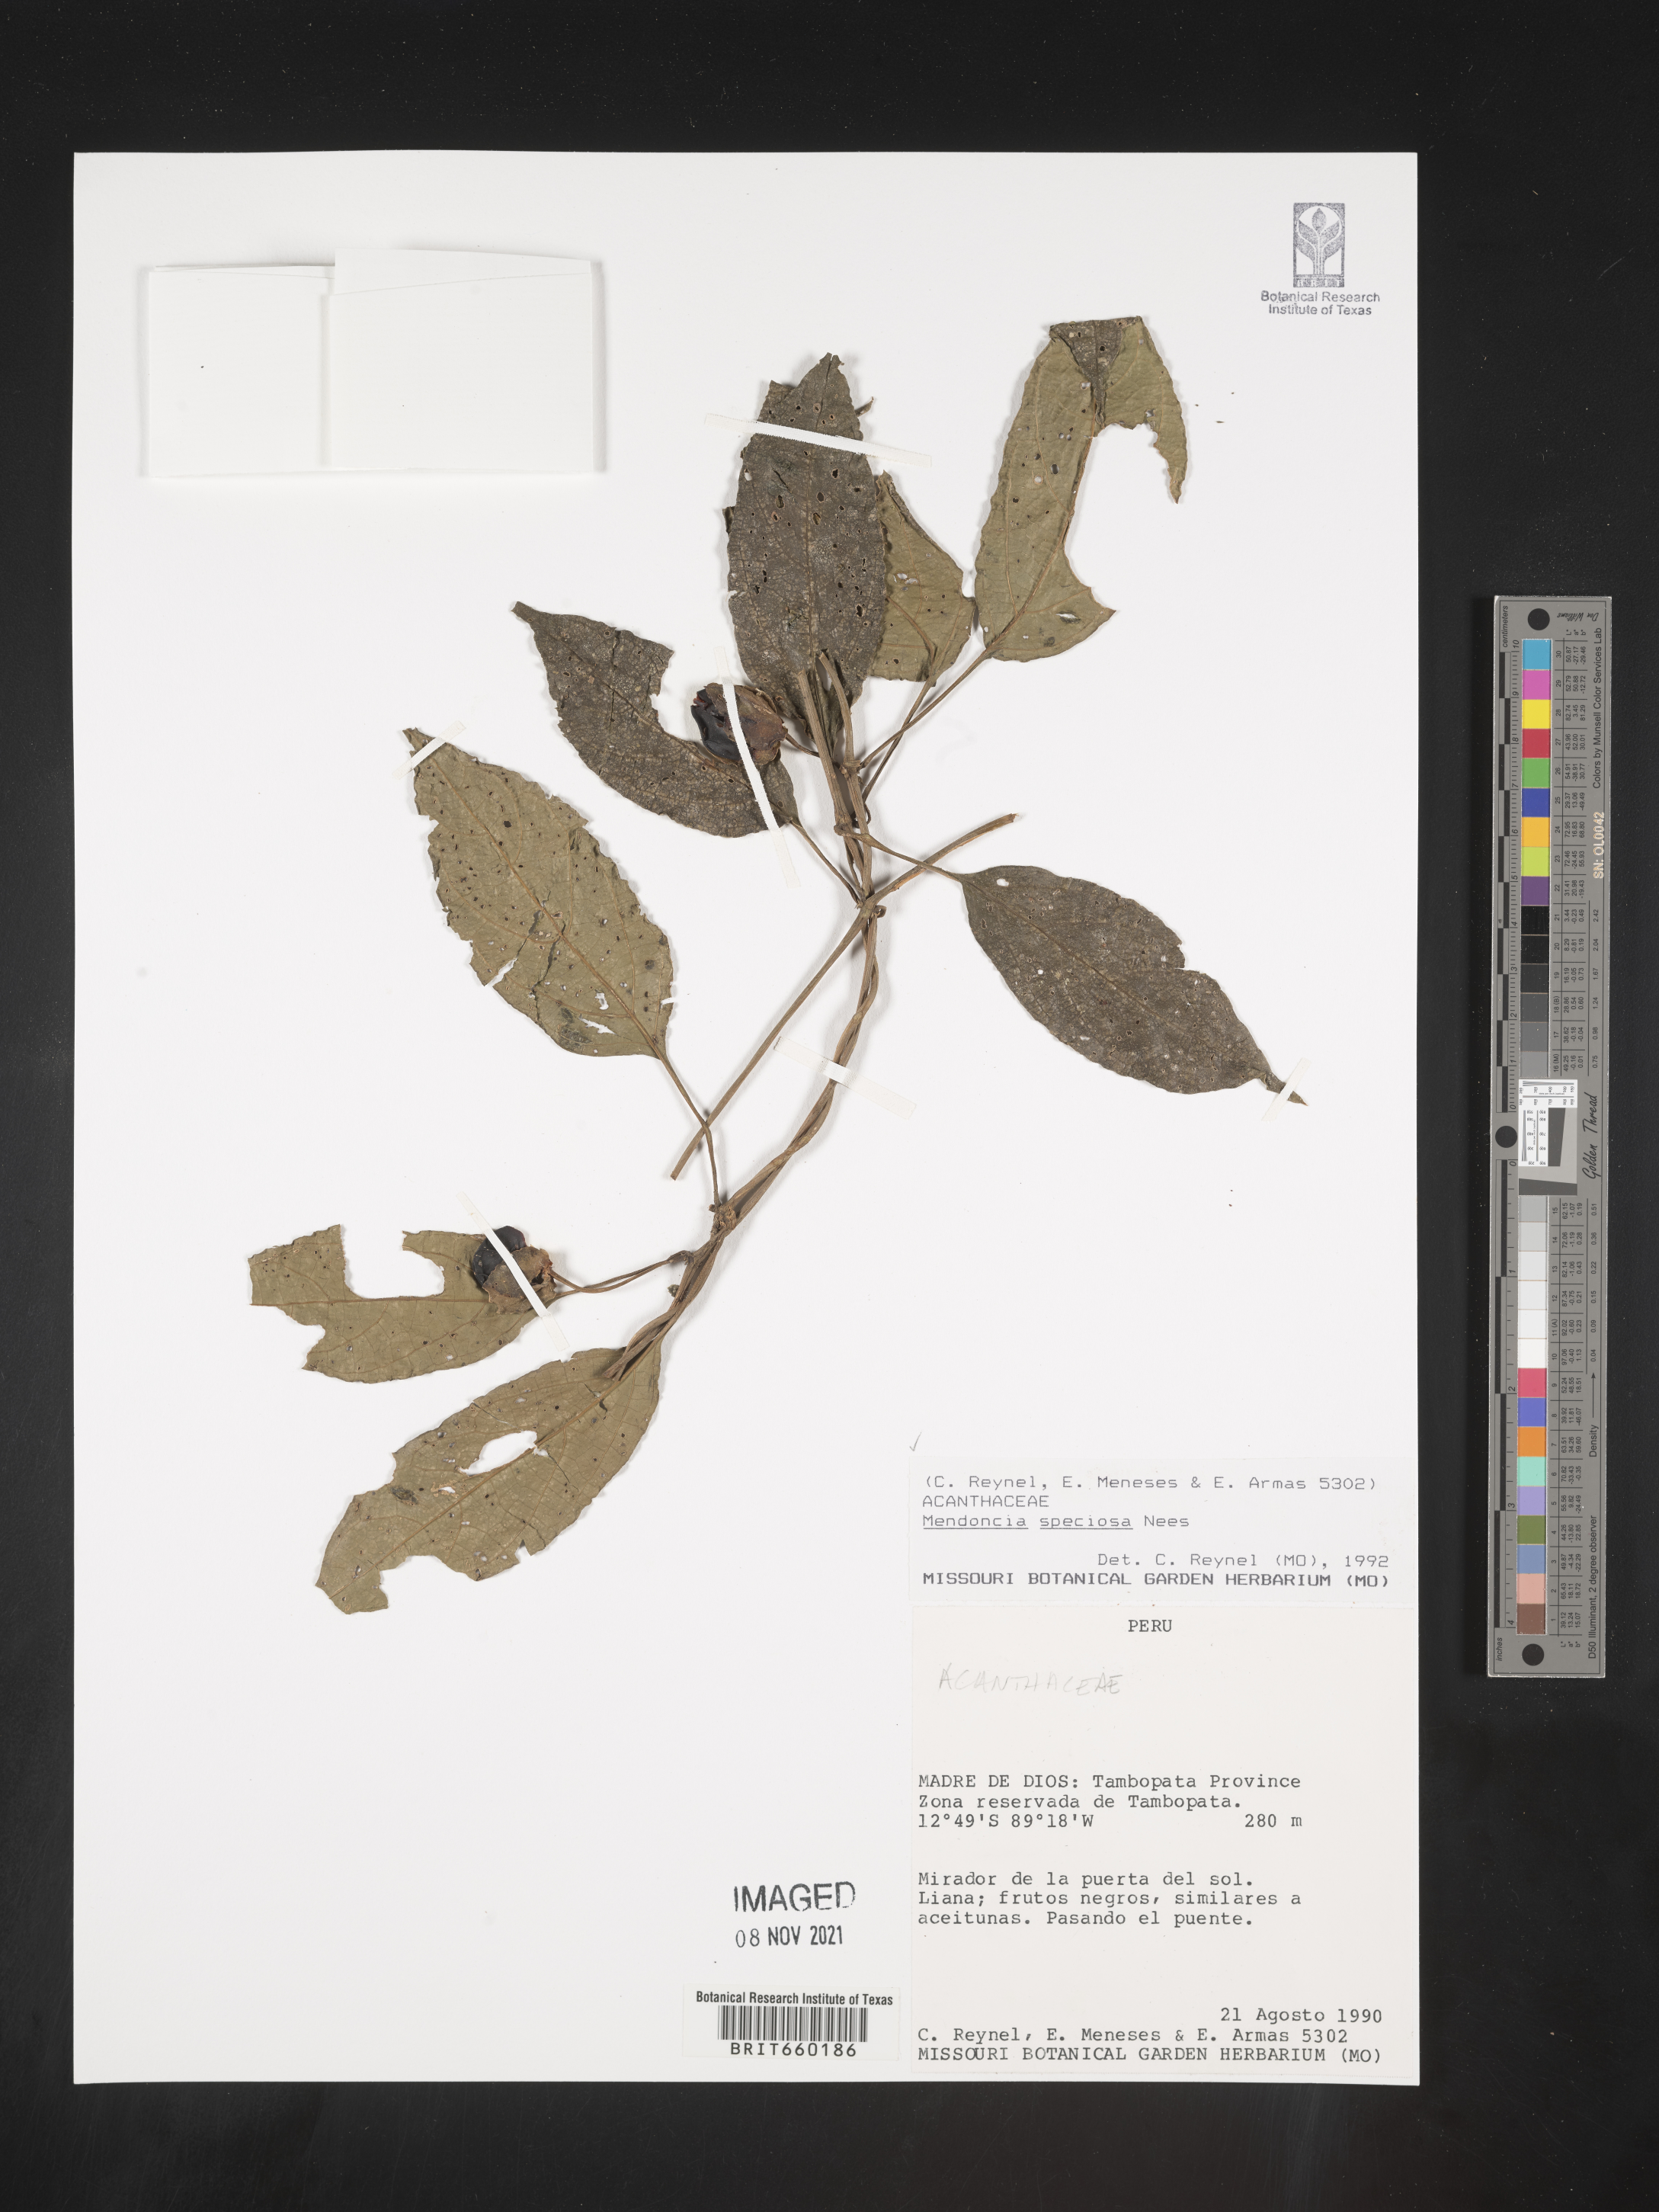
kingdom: Plantae
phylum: Tracheophyta
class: Magnoliopsida
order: Lamiales
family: Acanthaceae
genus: Mendoncia
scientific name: Mendoncia
